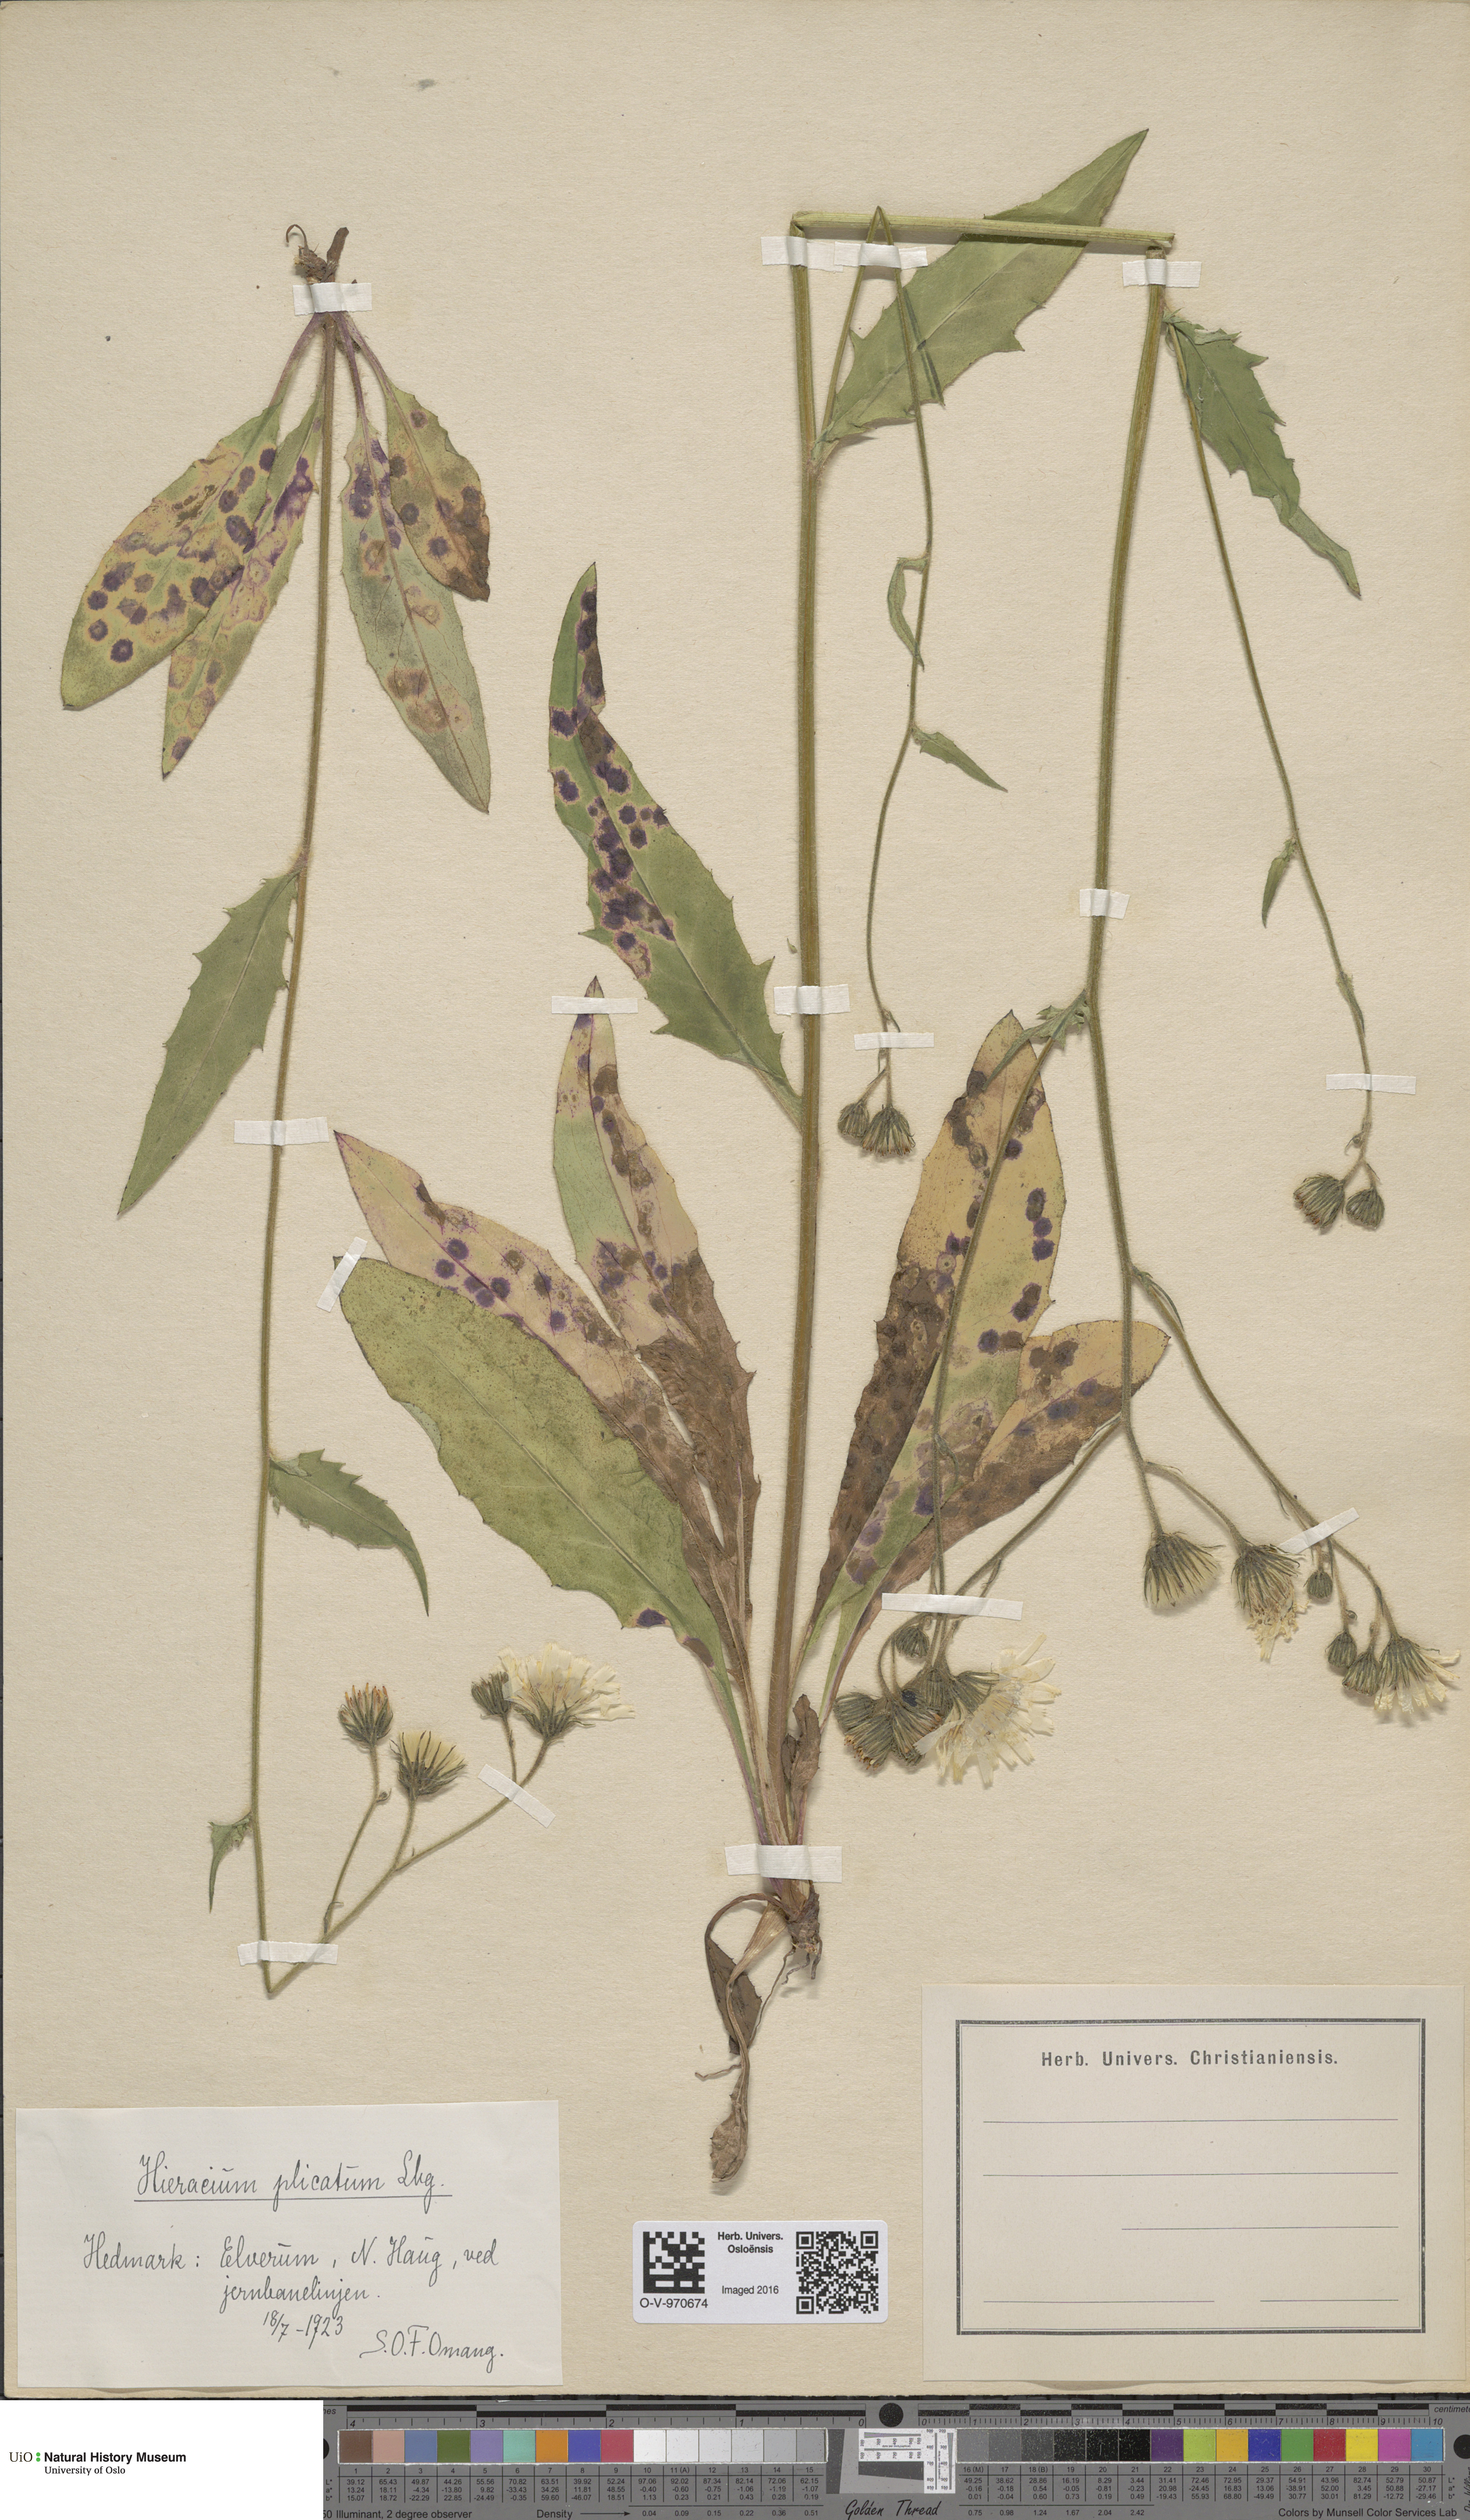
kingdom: Plantae
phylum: Tracheophyta
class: Magnoliopsida
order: Asterales
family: Asteraceae
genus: Hieracium
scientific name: Hieracium plicatum
